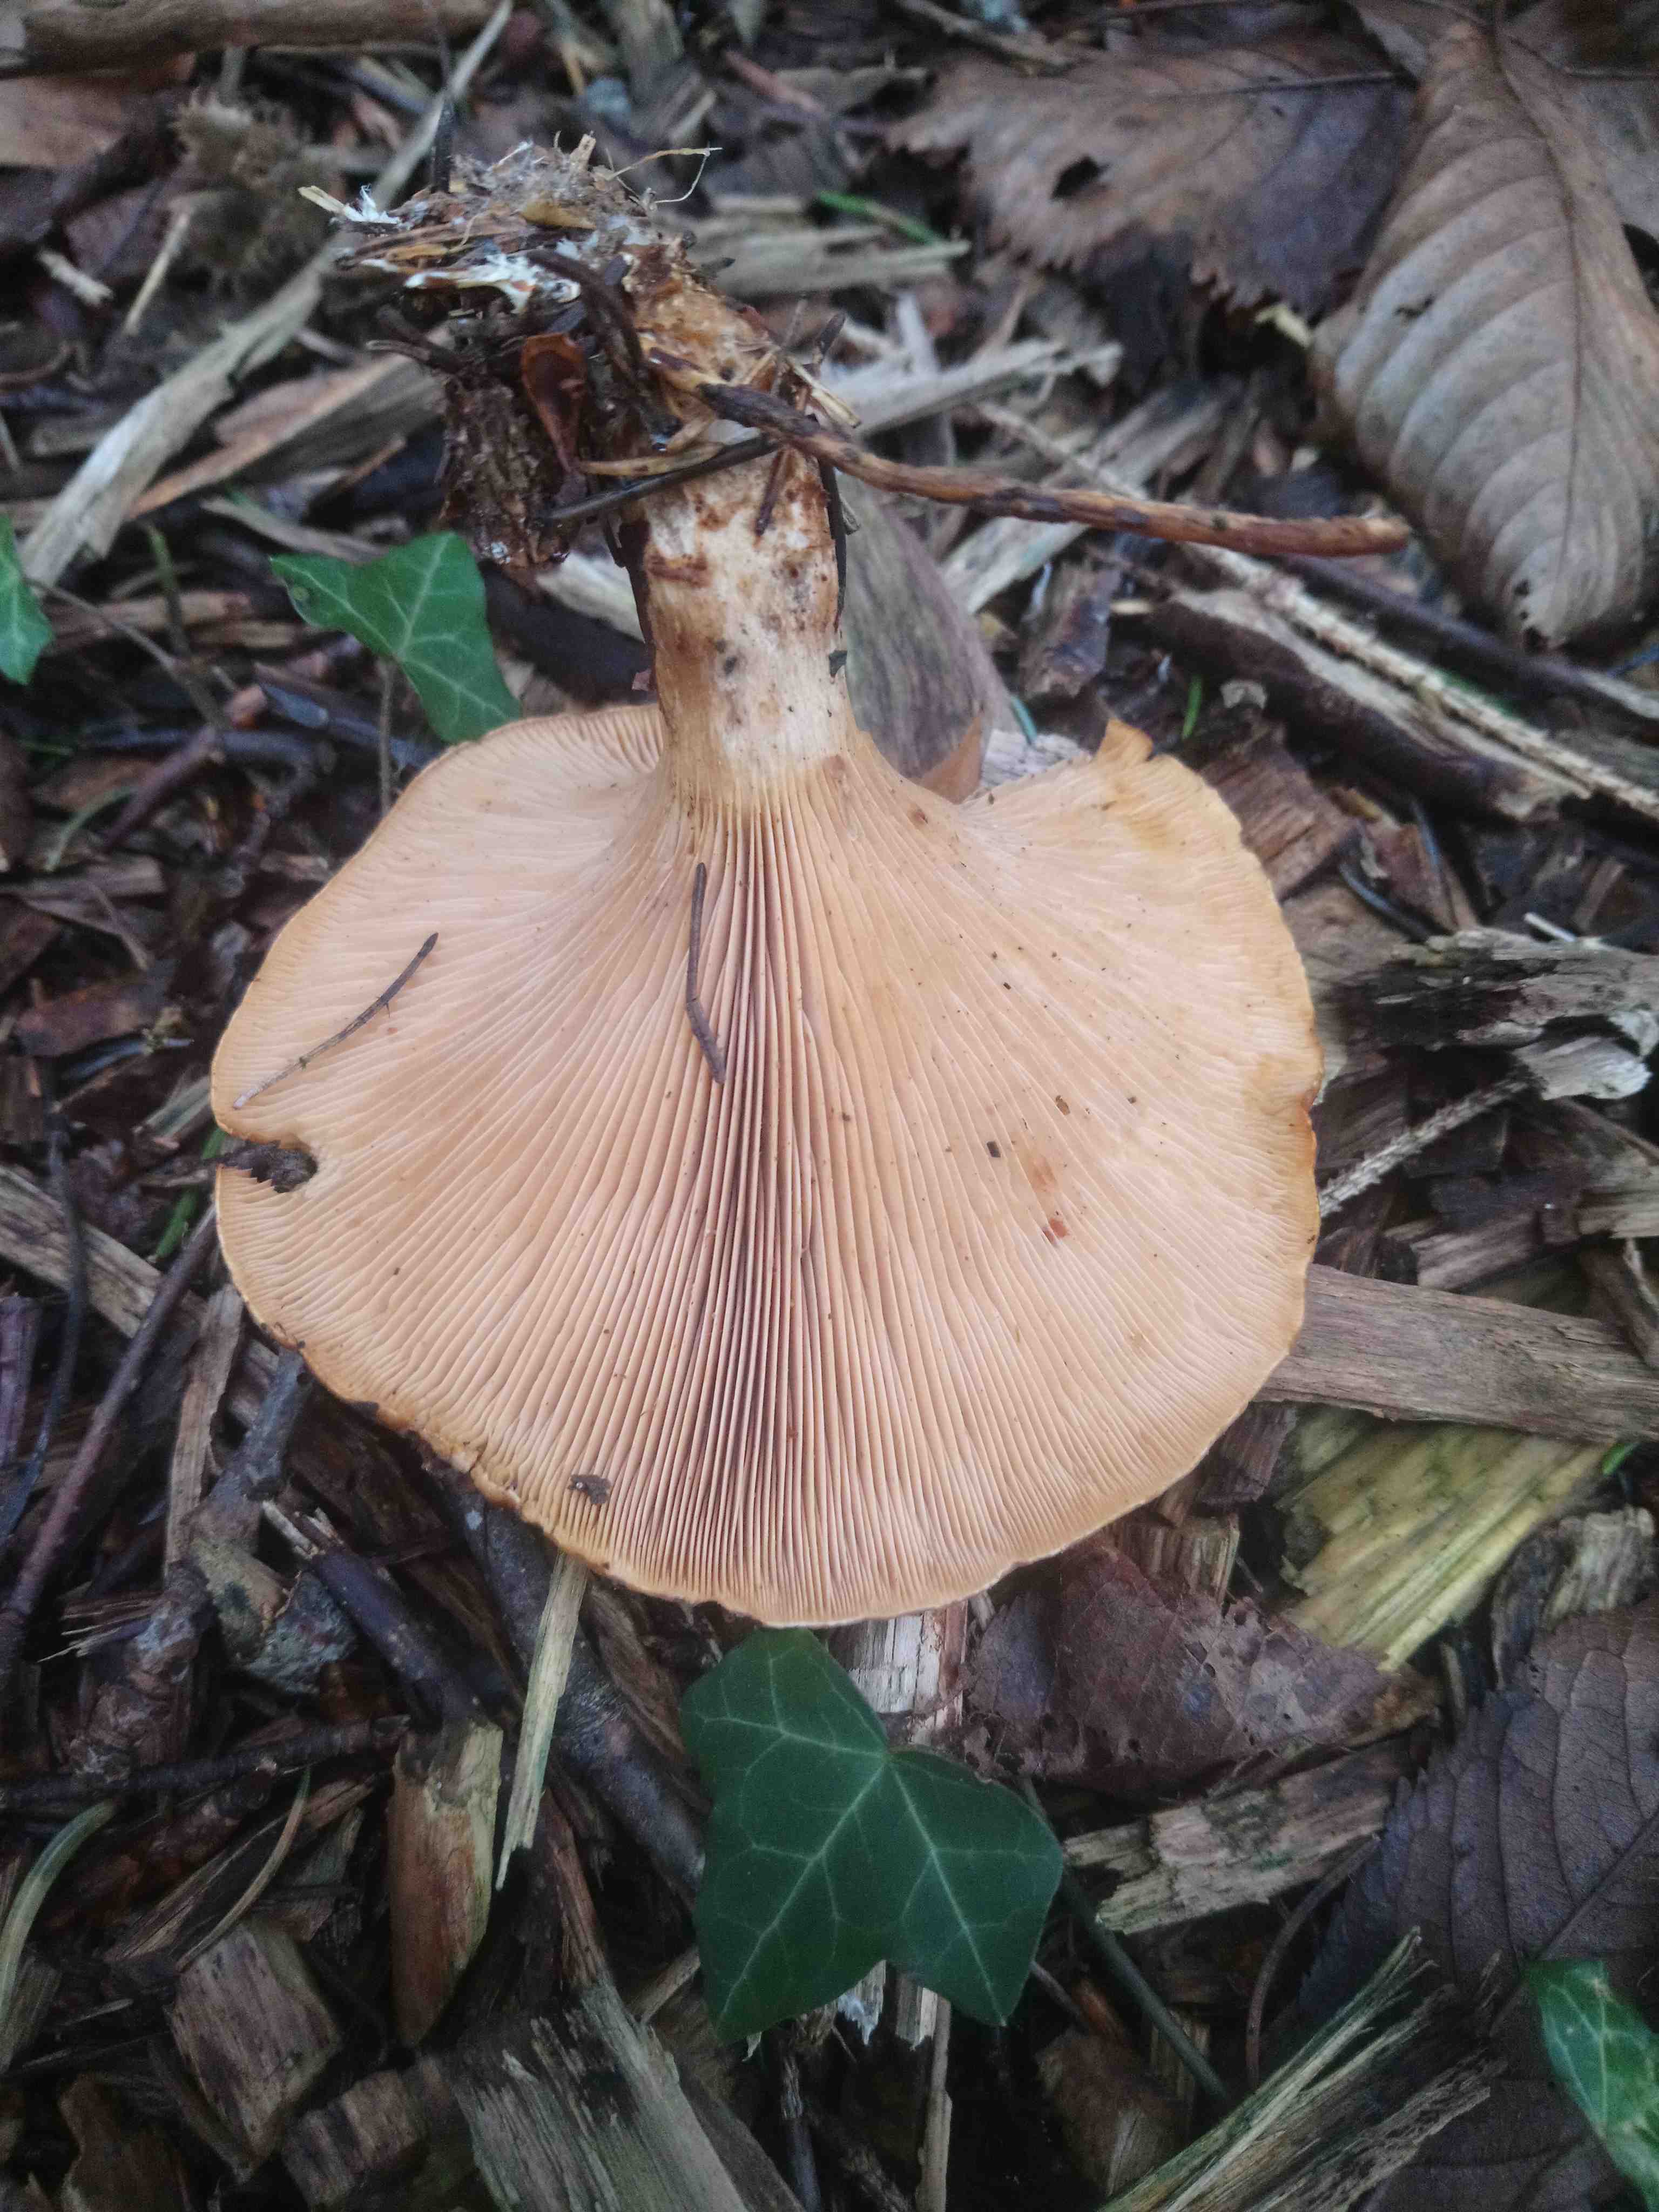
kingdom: Fungi
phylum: Basidiomycota
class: Agaricomycetes
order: Agaricales
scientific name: Agaricales
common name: champignonordenen
